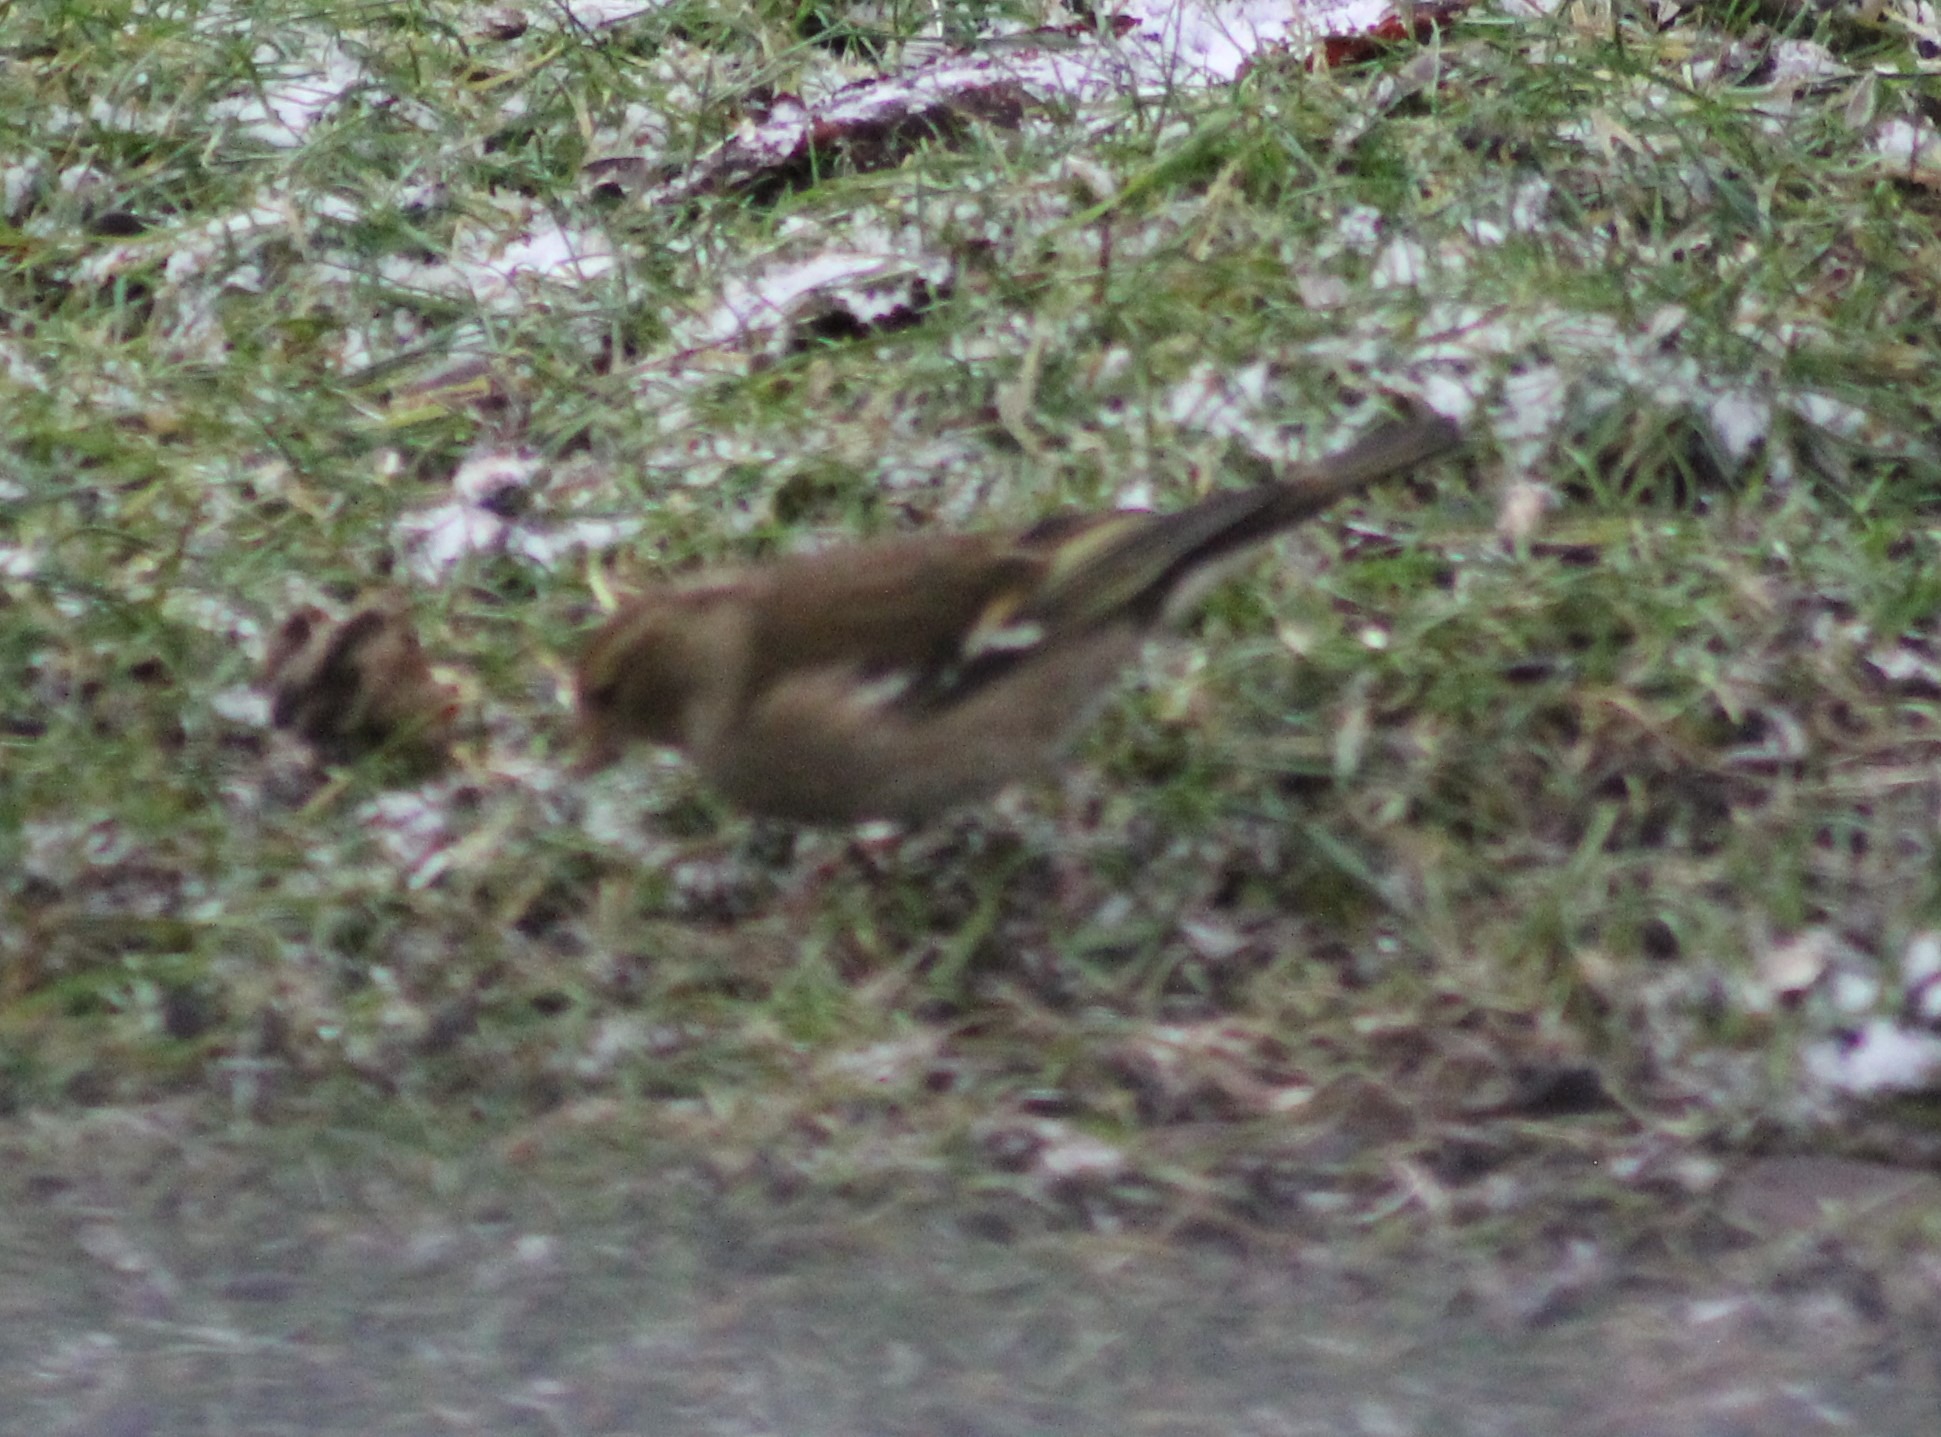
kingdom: Animalia
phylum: Chordata
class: Aves
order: Passeriformes
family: Fringillidae
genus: Fringilla
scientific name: Fringilla coelebs
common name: Bogfinke
